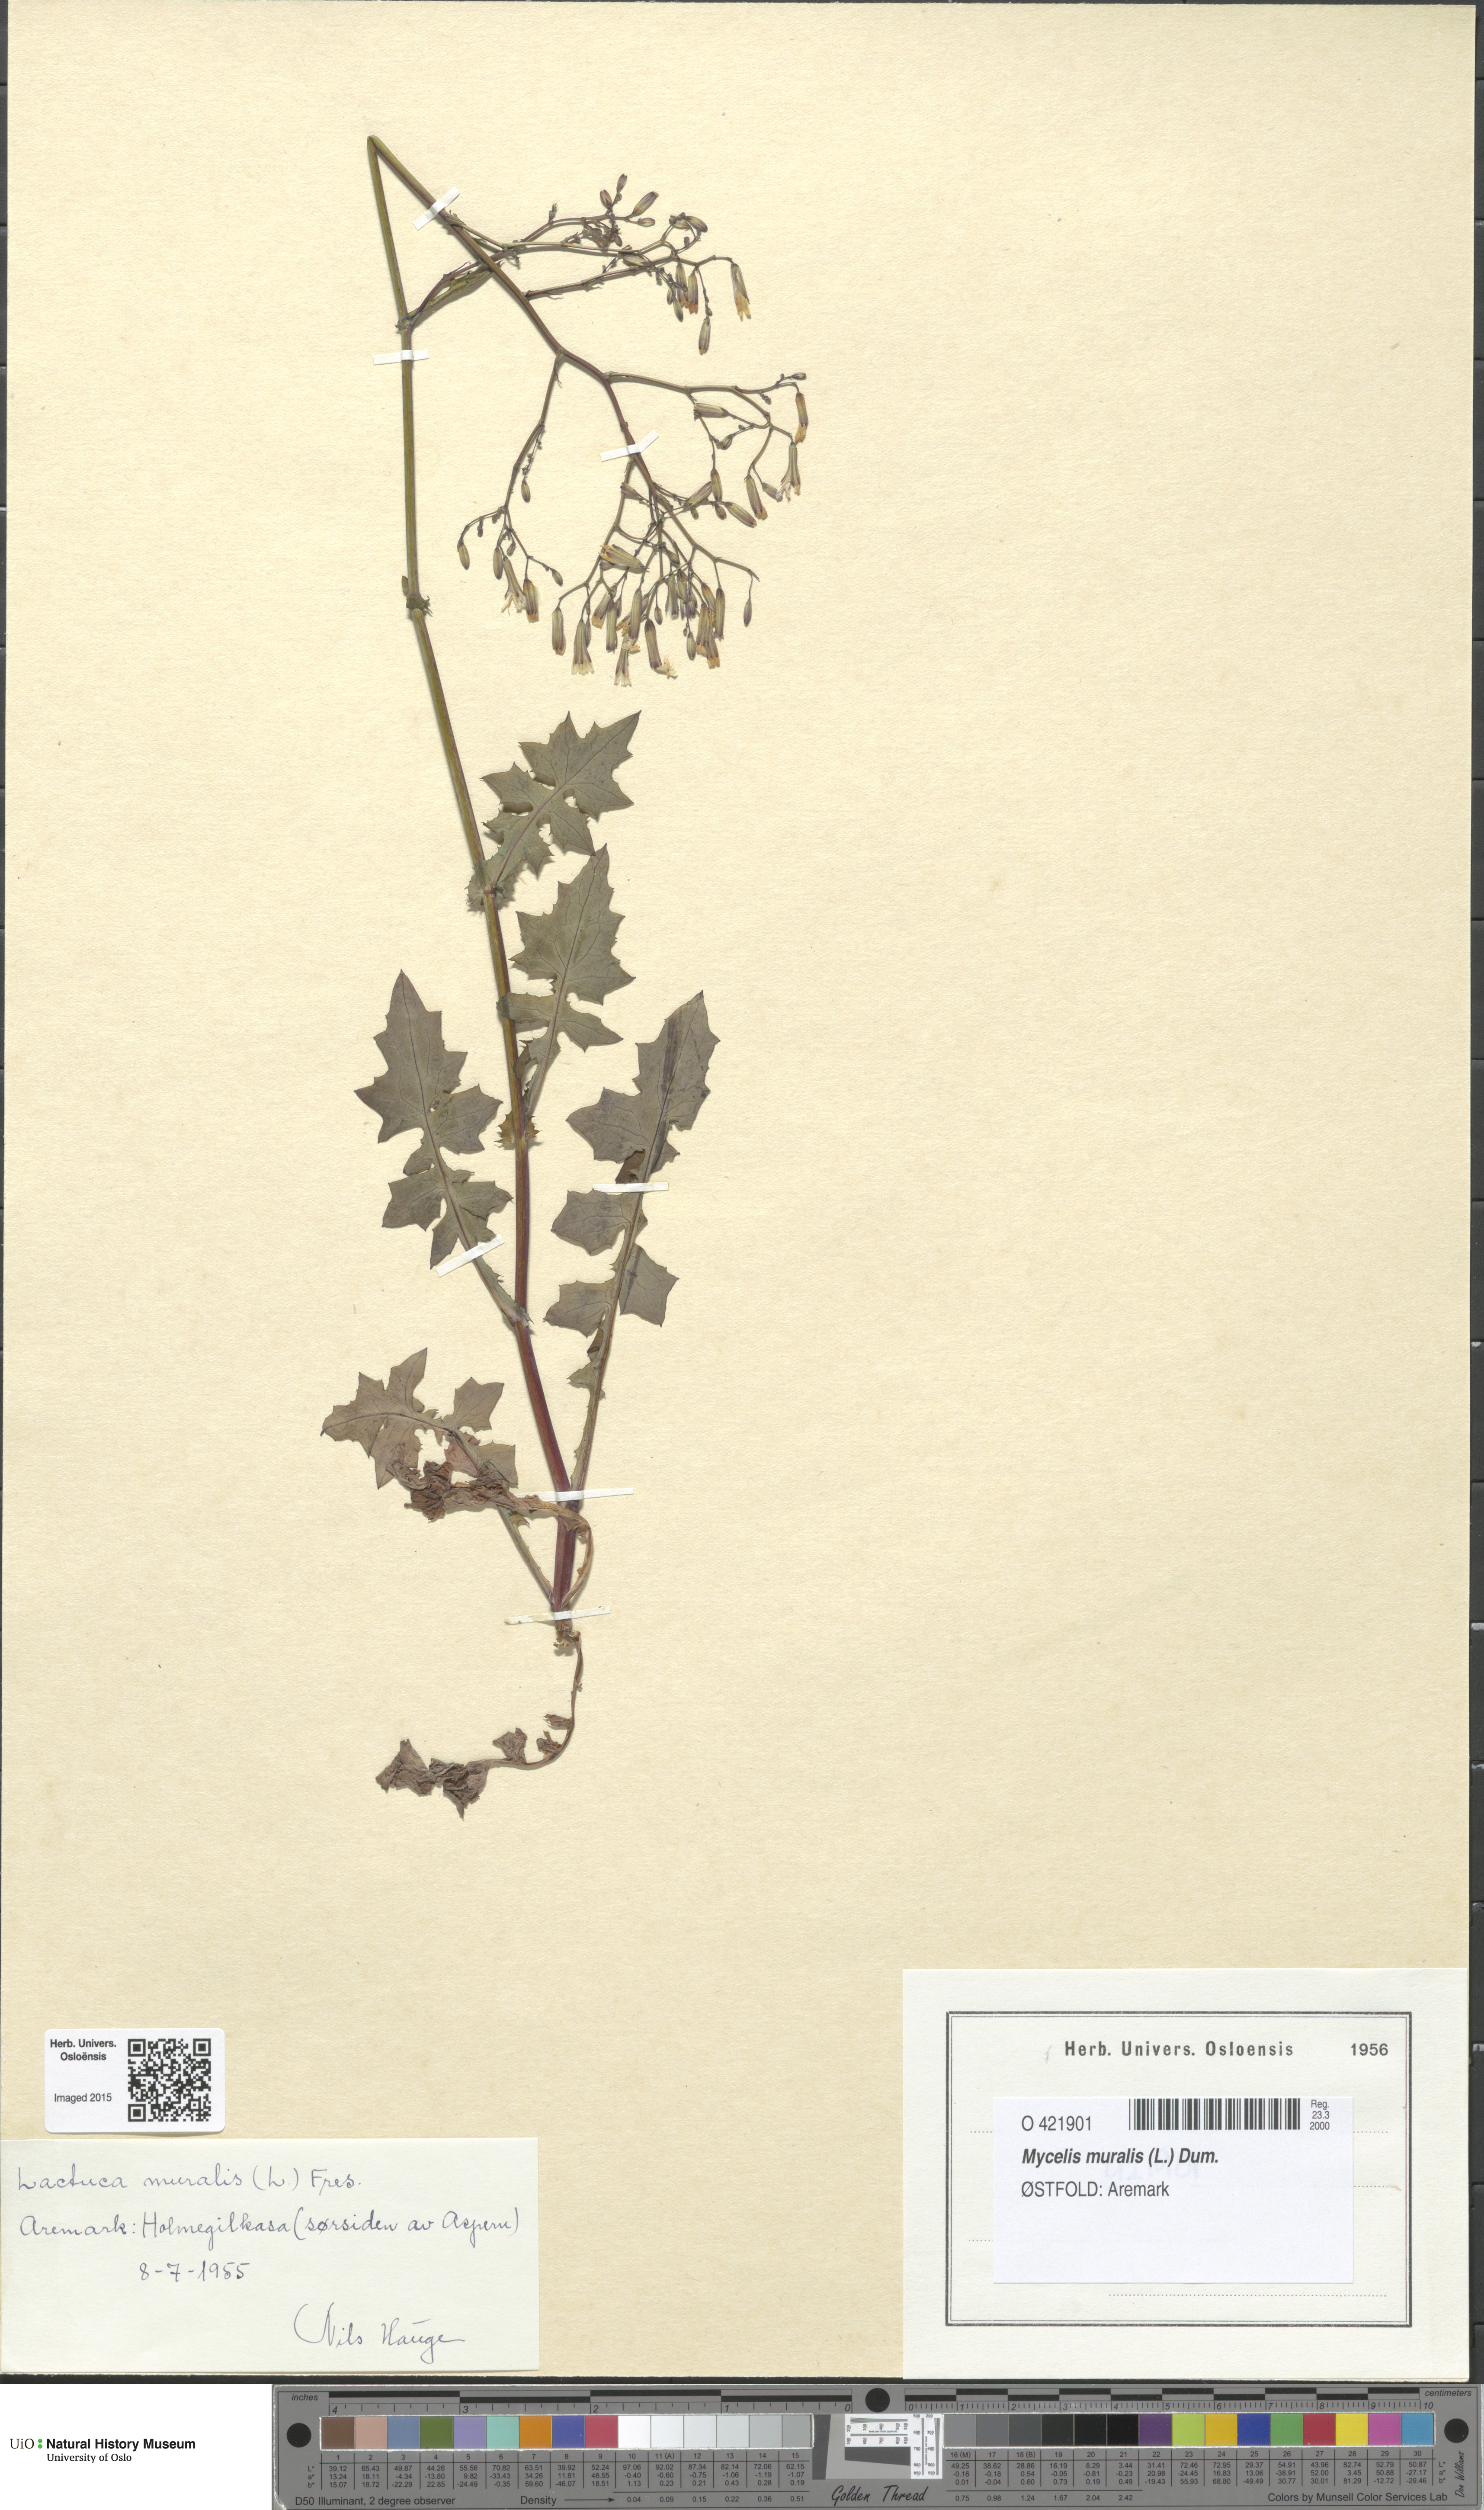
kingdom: Plantae
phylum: Tracheophyta
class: Magnoliopsida
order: Asterales
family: Asteraceae
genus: Mycelis
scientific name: Mycelis muralis
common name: Wall lettuce
